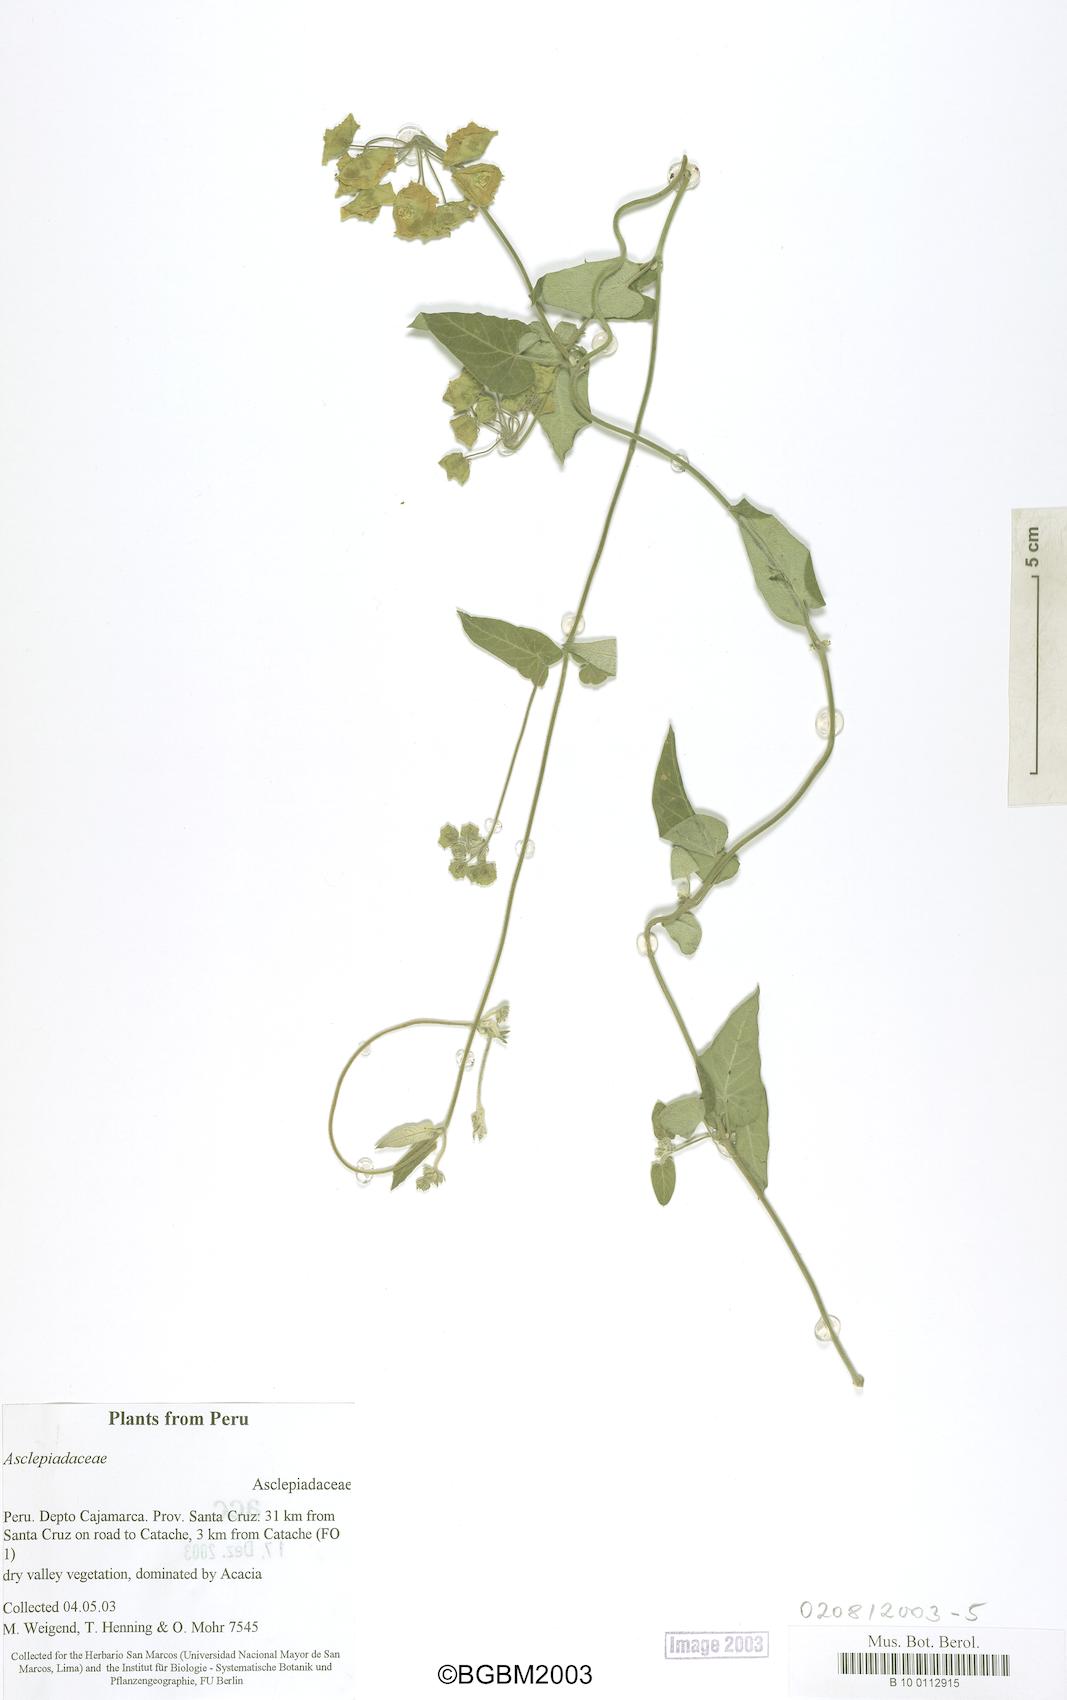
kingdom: Plantae
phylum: Tracheophyta
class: Magnoliopsida
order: Gentianales
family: Apocynaceae
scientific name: Apocynaceae
